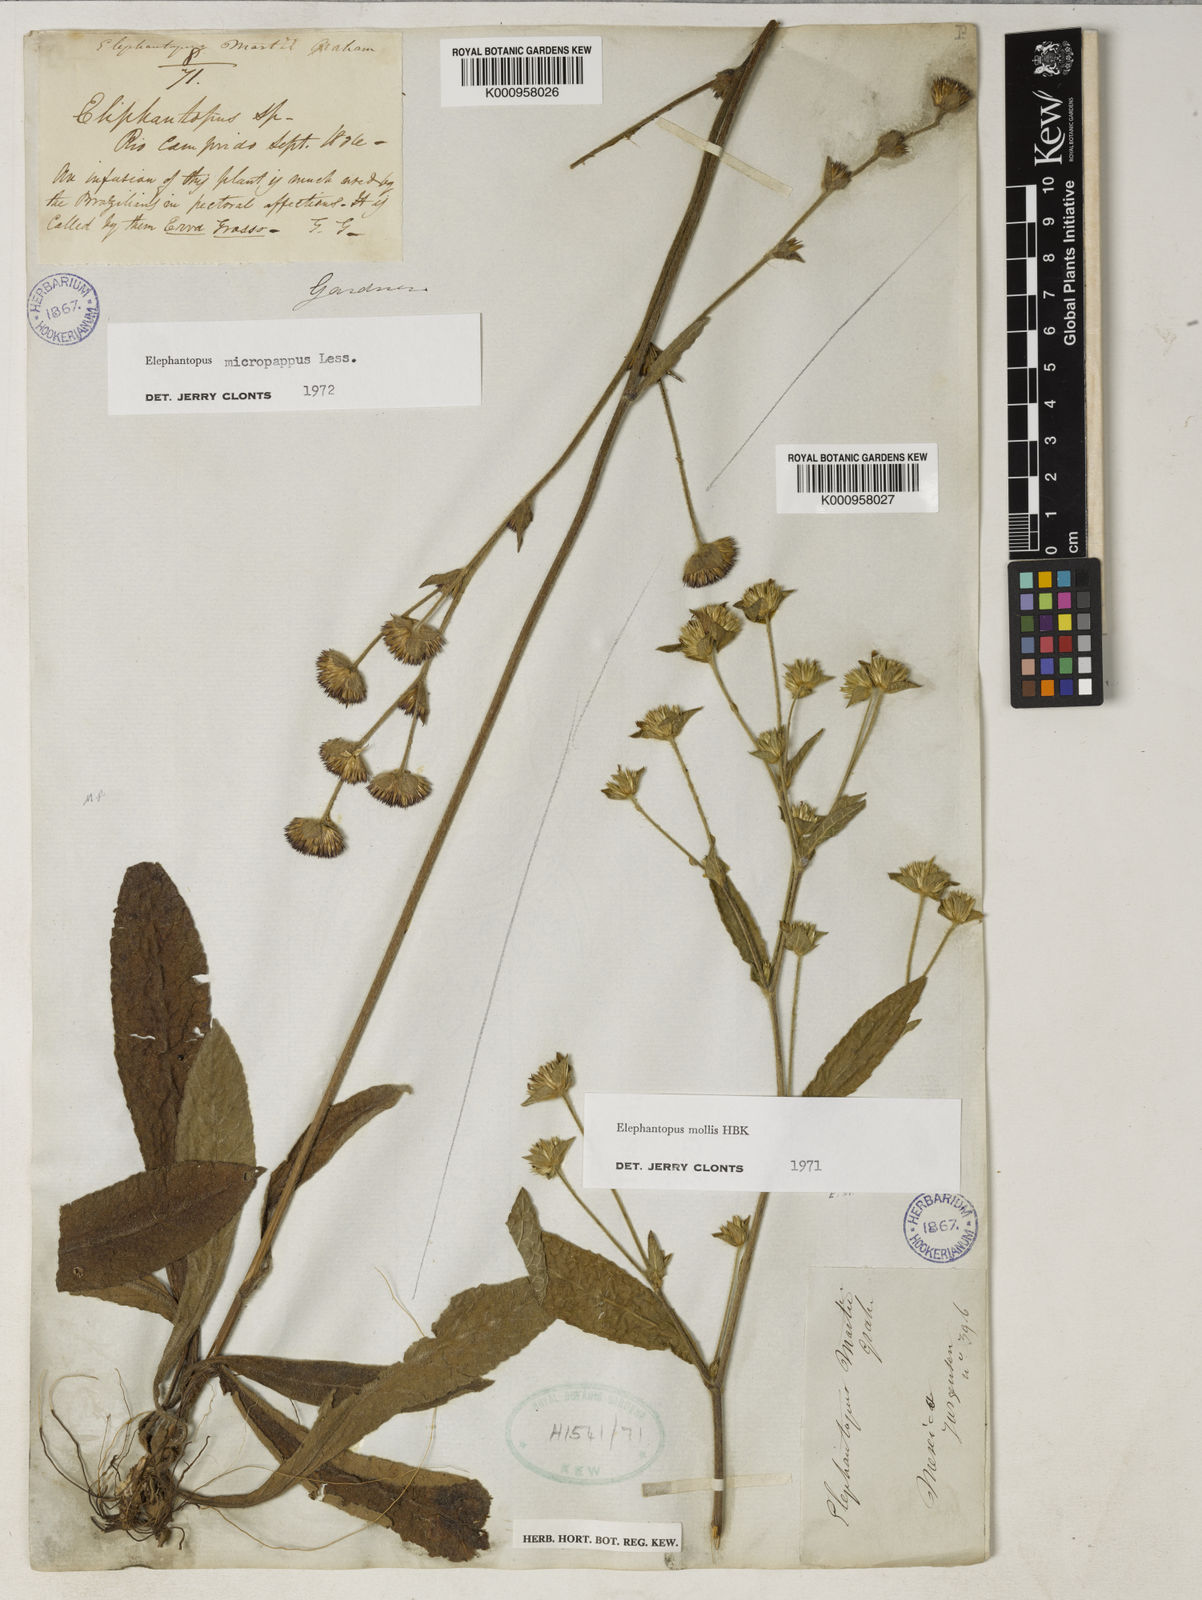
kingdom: Plantae
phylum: Tracheophyta
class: Magnoliopsida
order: Asterales
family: Asteraceae
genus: Elephantopus
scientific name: Elephantopus micropappus
